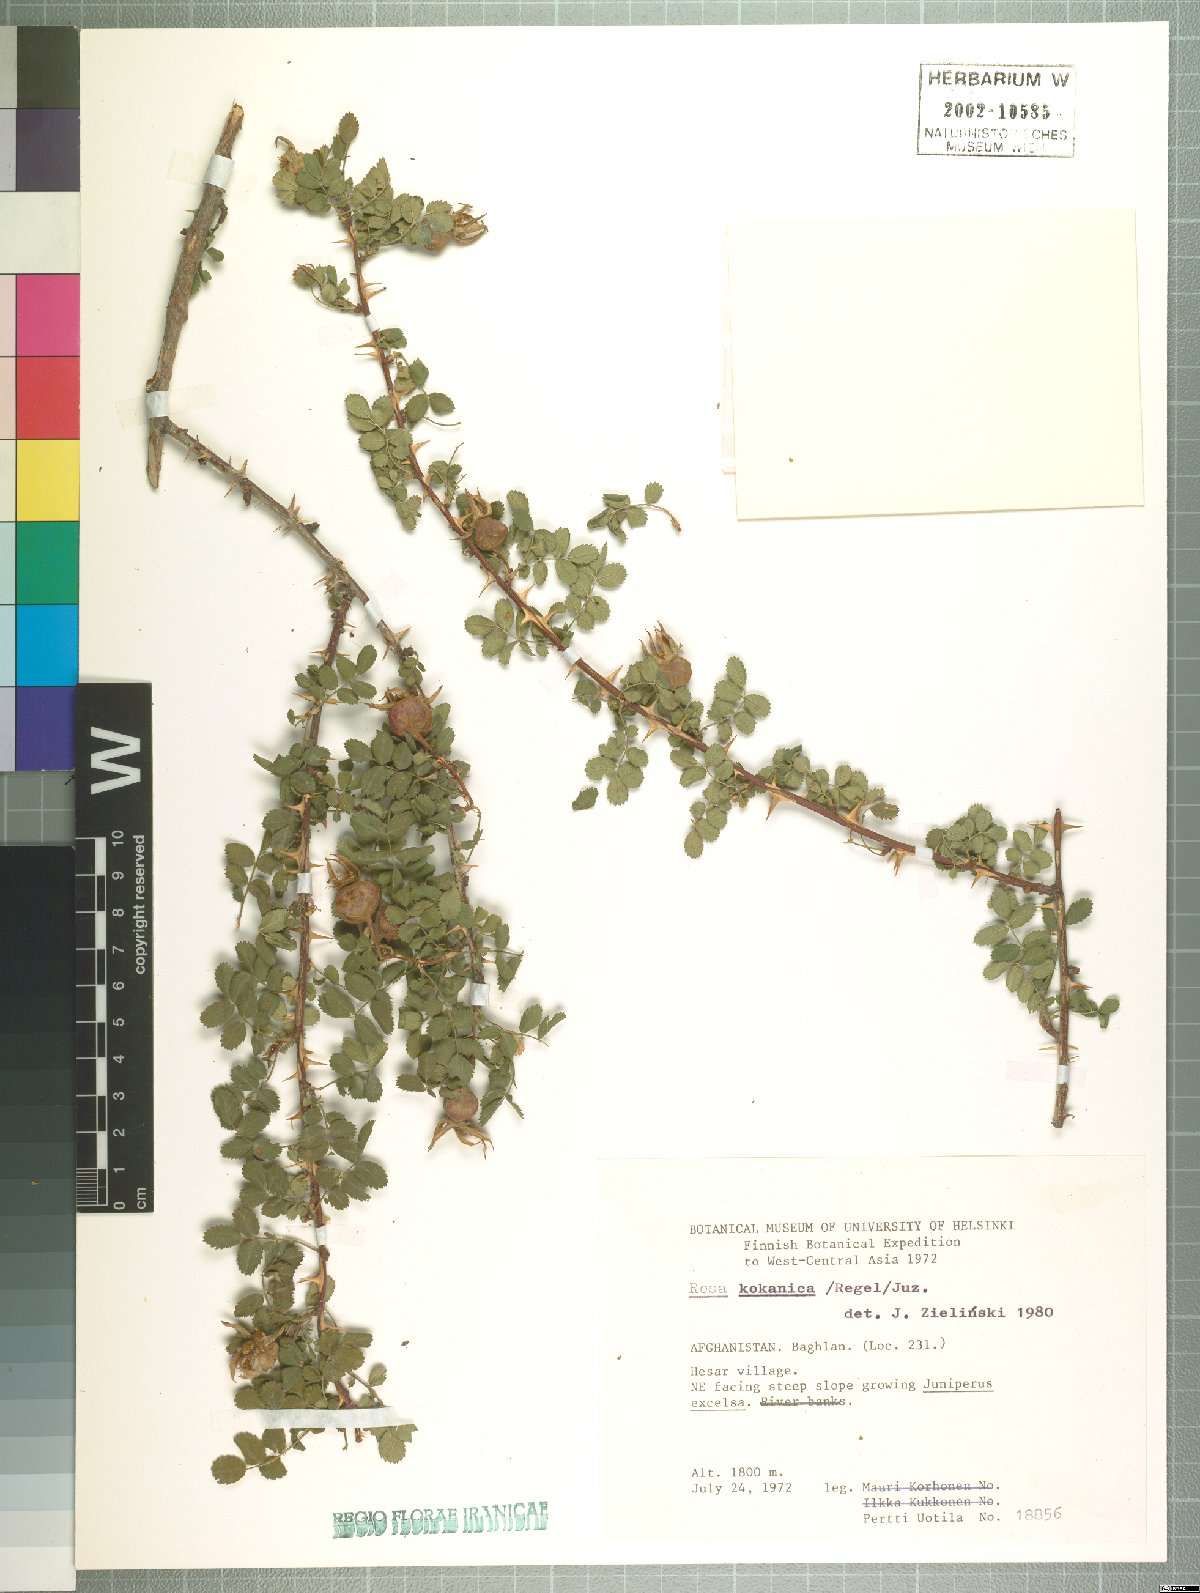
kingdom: Plantae
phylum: Tracheophyta
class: Magnoliopsida
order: Rosales
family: Rosaceae
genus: Rosa
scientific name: Rosa kokanica
